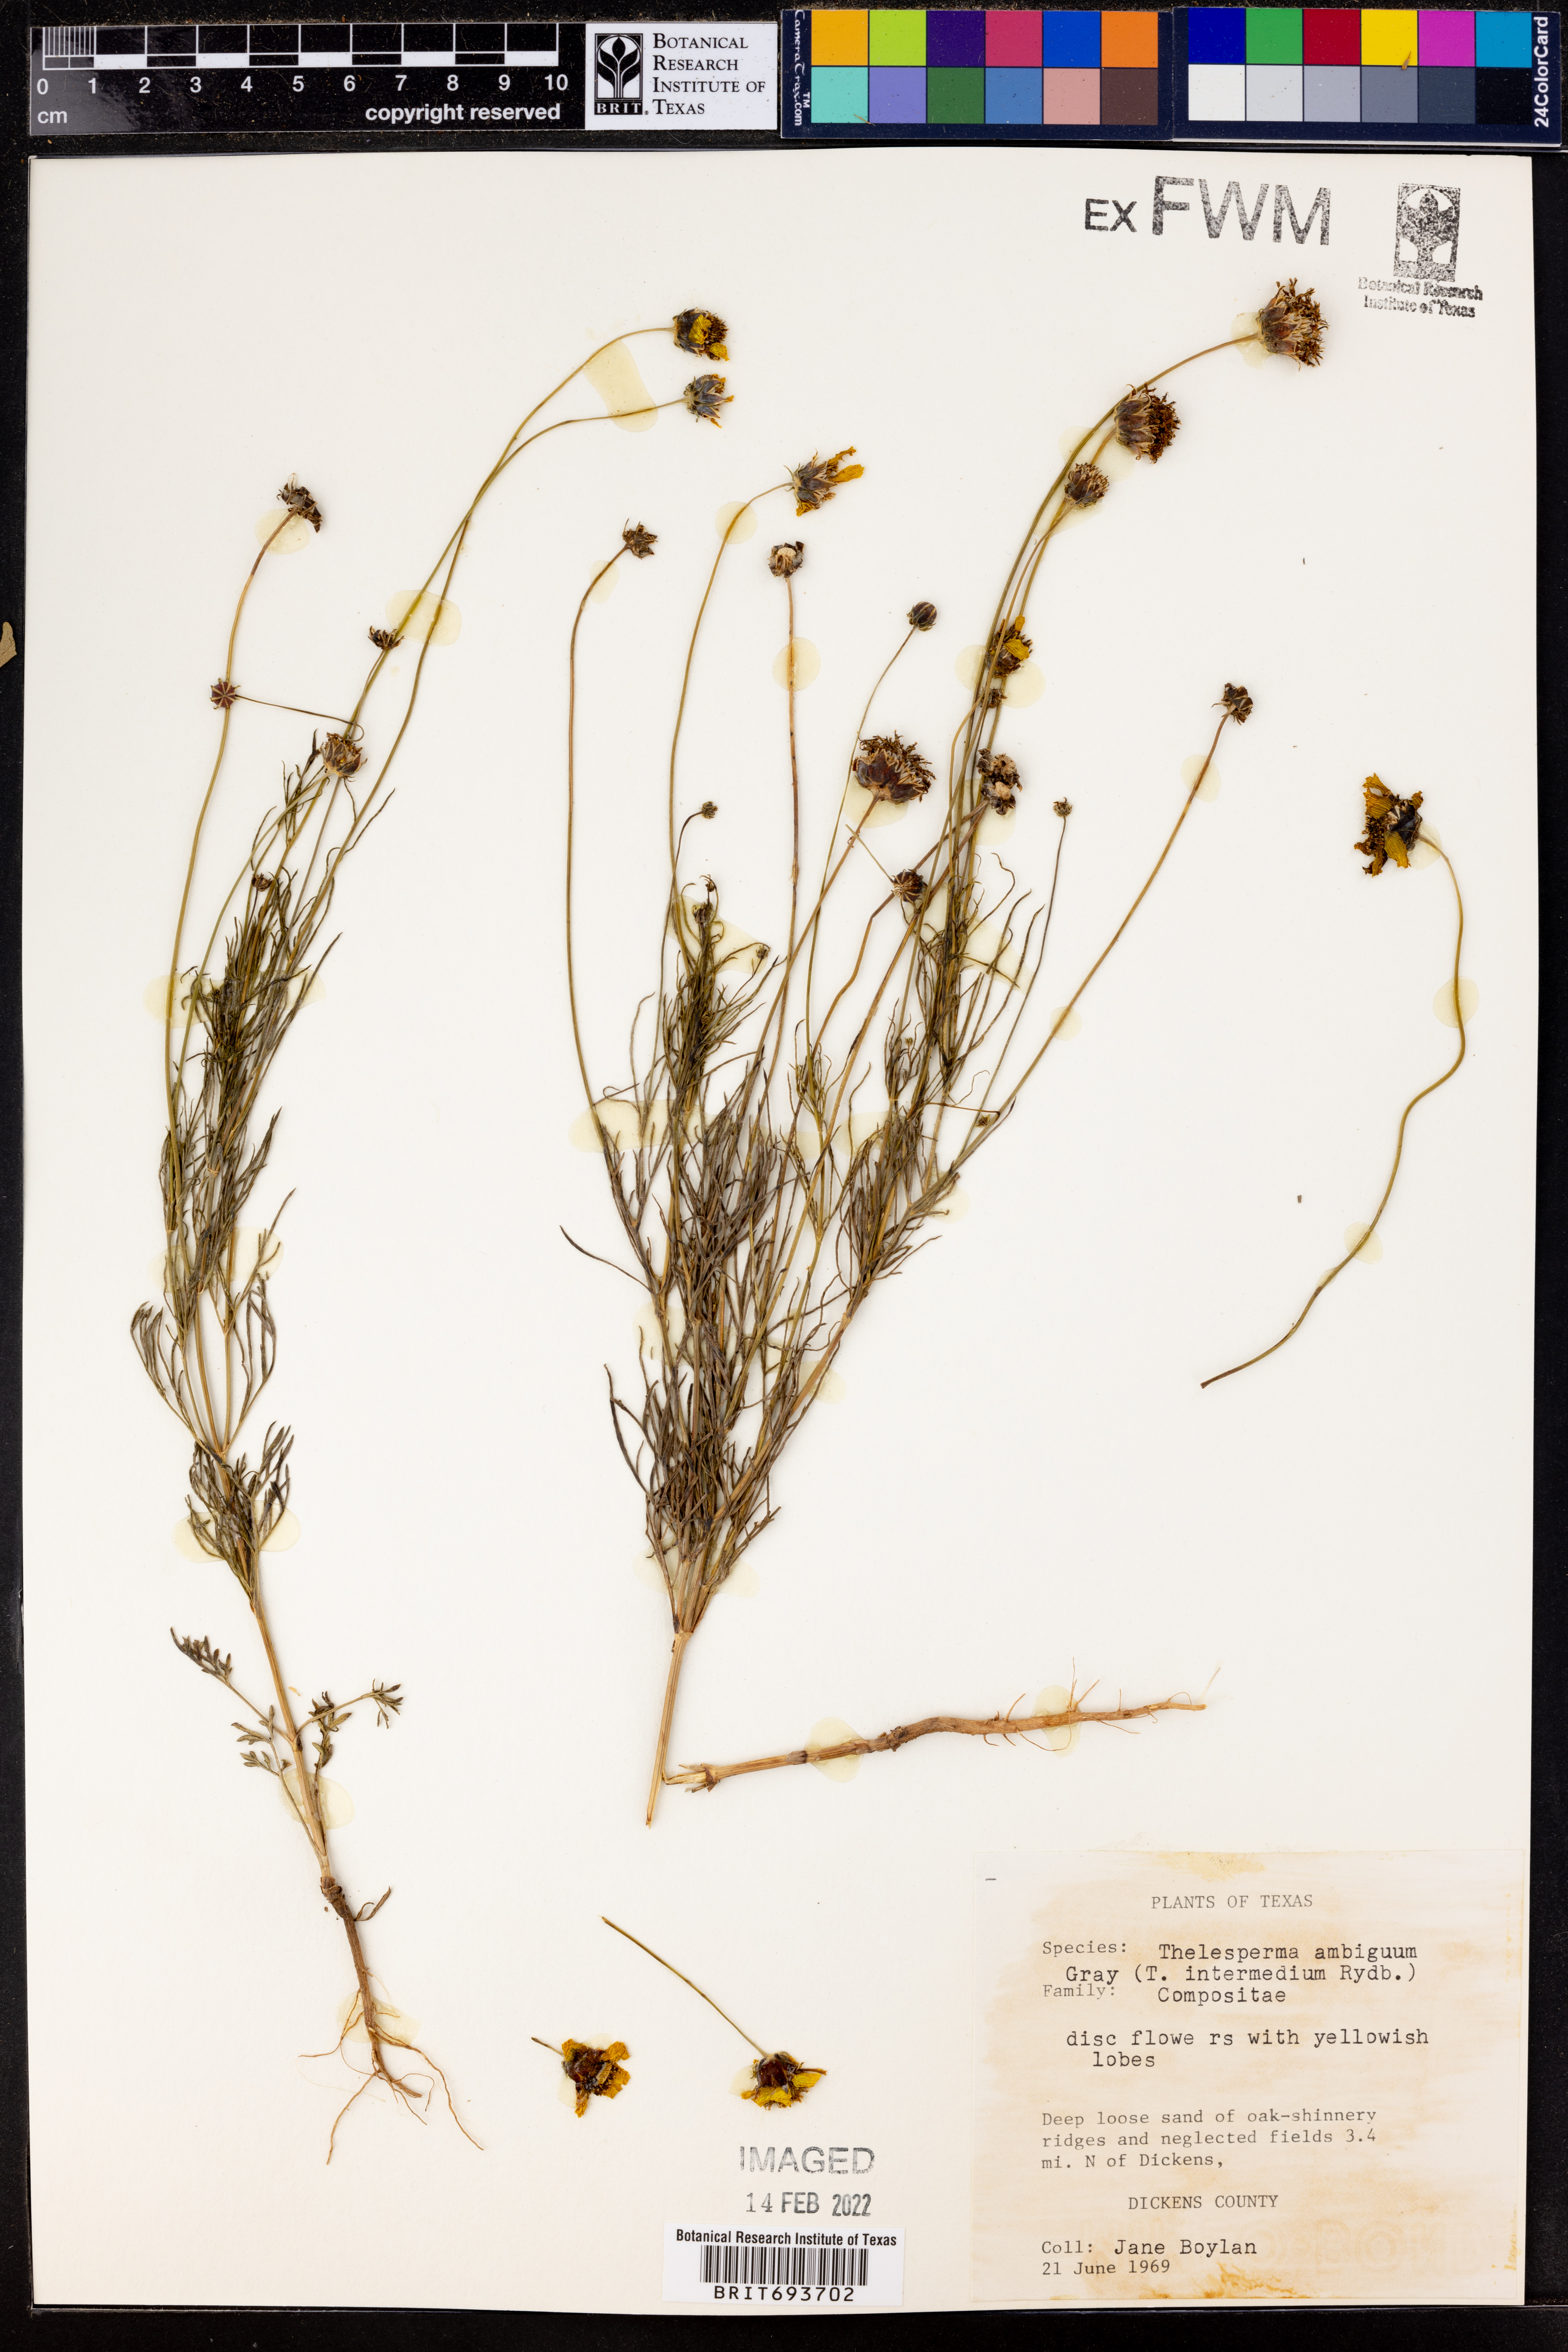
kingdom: Plantae
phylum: Tracheophyta
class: Magnoliopsida
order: Asterales
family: Asteraceae
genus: Thelesperma
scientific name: Thelesperma ambiguum
